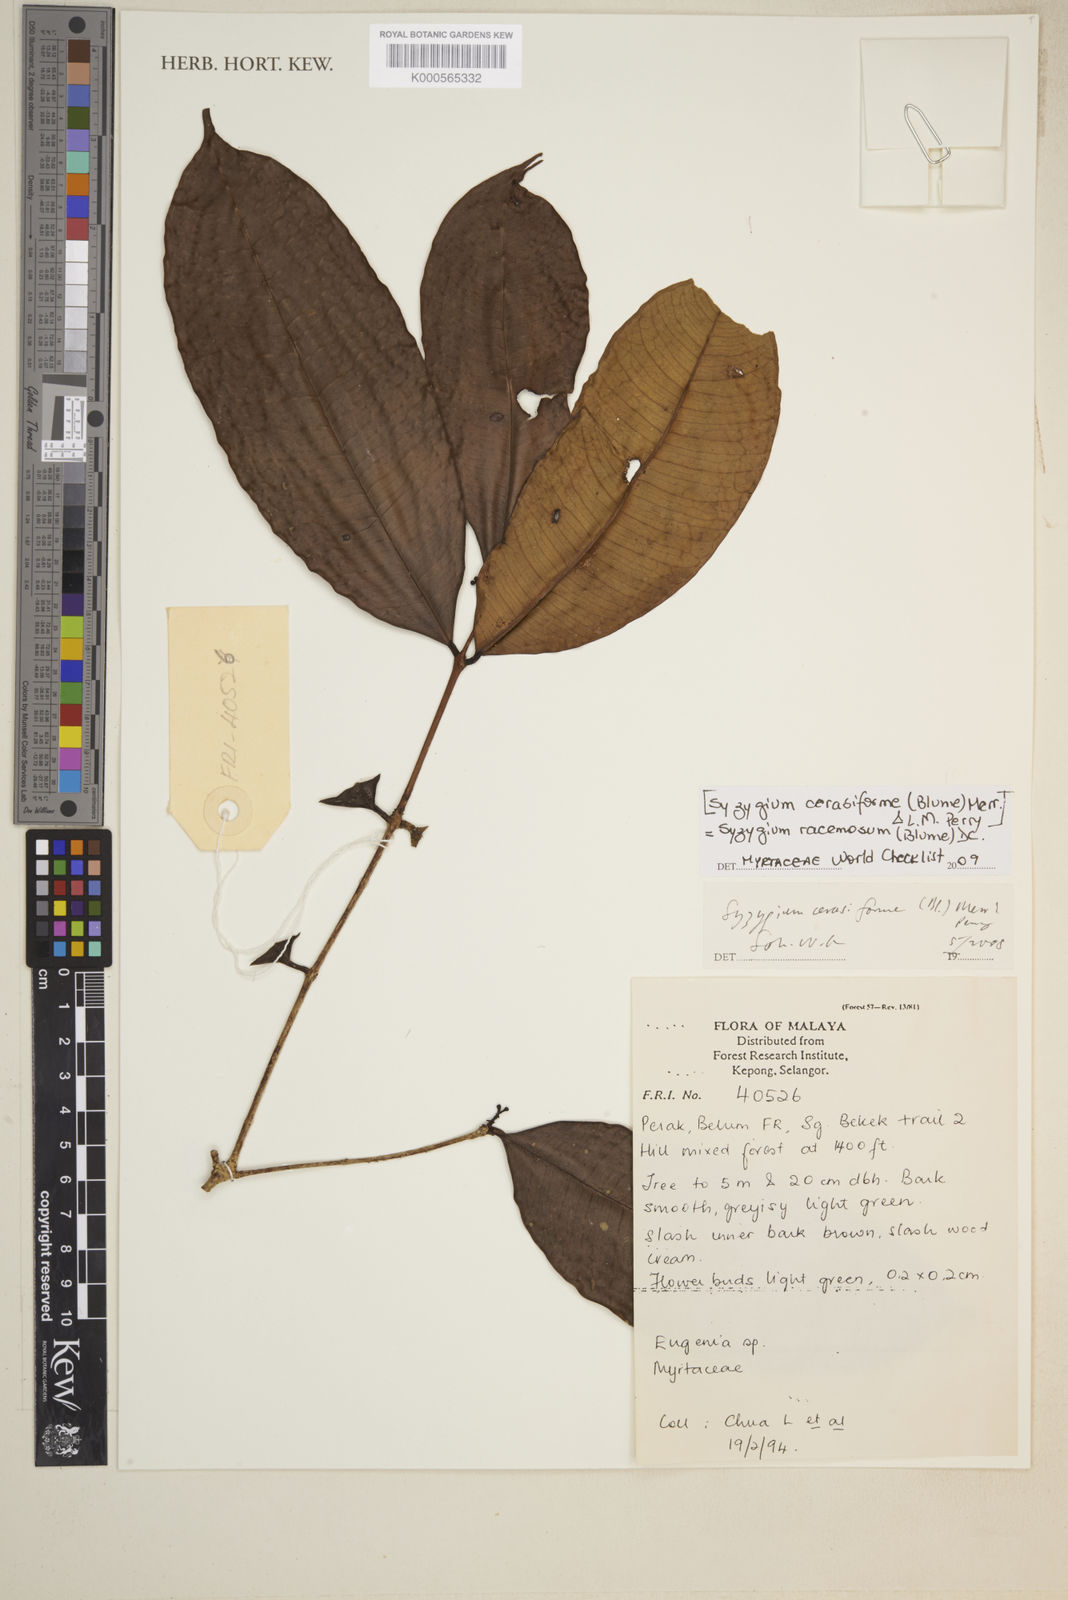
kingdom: Plantae
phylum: Tracheophyta
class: Magnoliopsida
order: Myrtales
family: Myrtaceae
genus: Syzygium
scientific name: Syzygium racemosum
